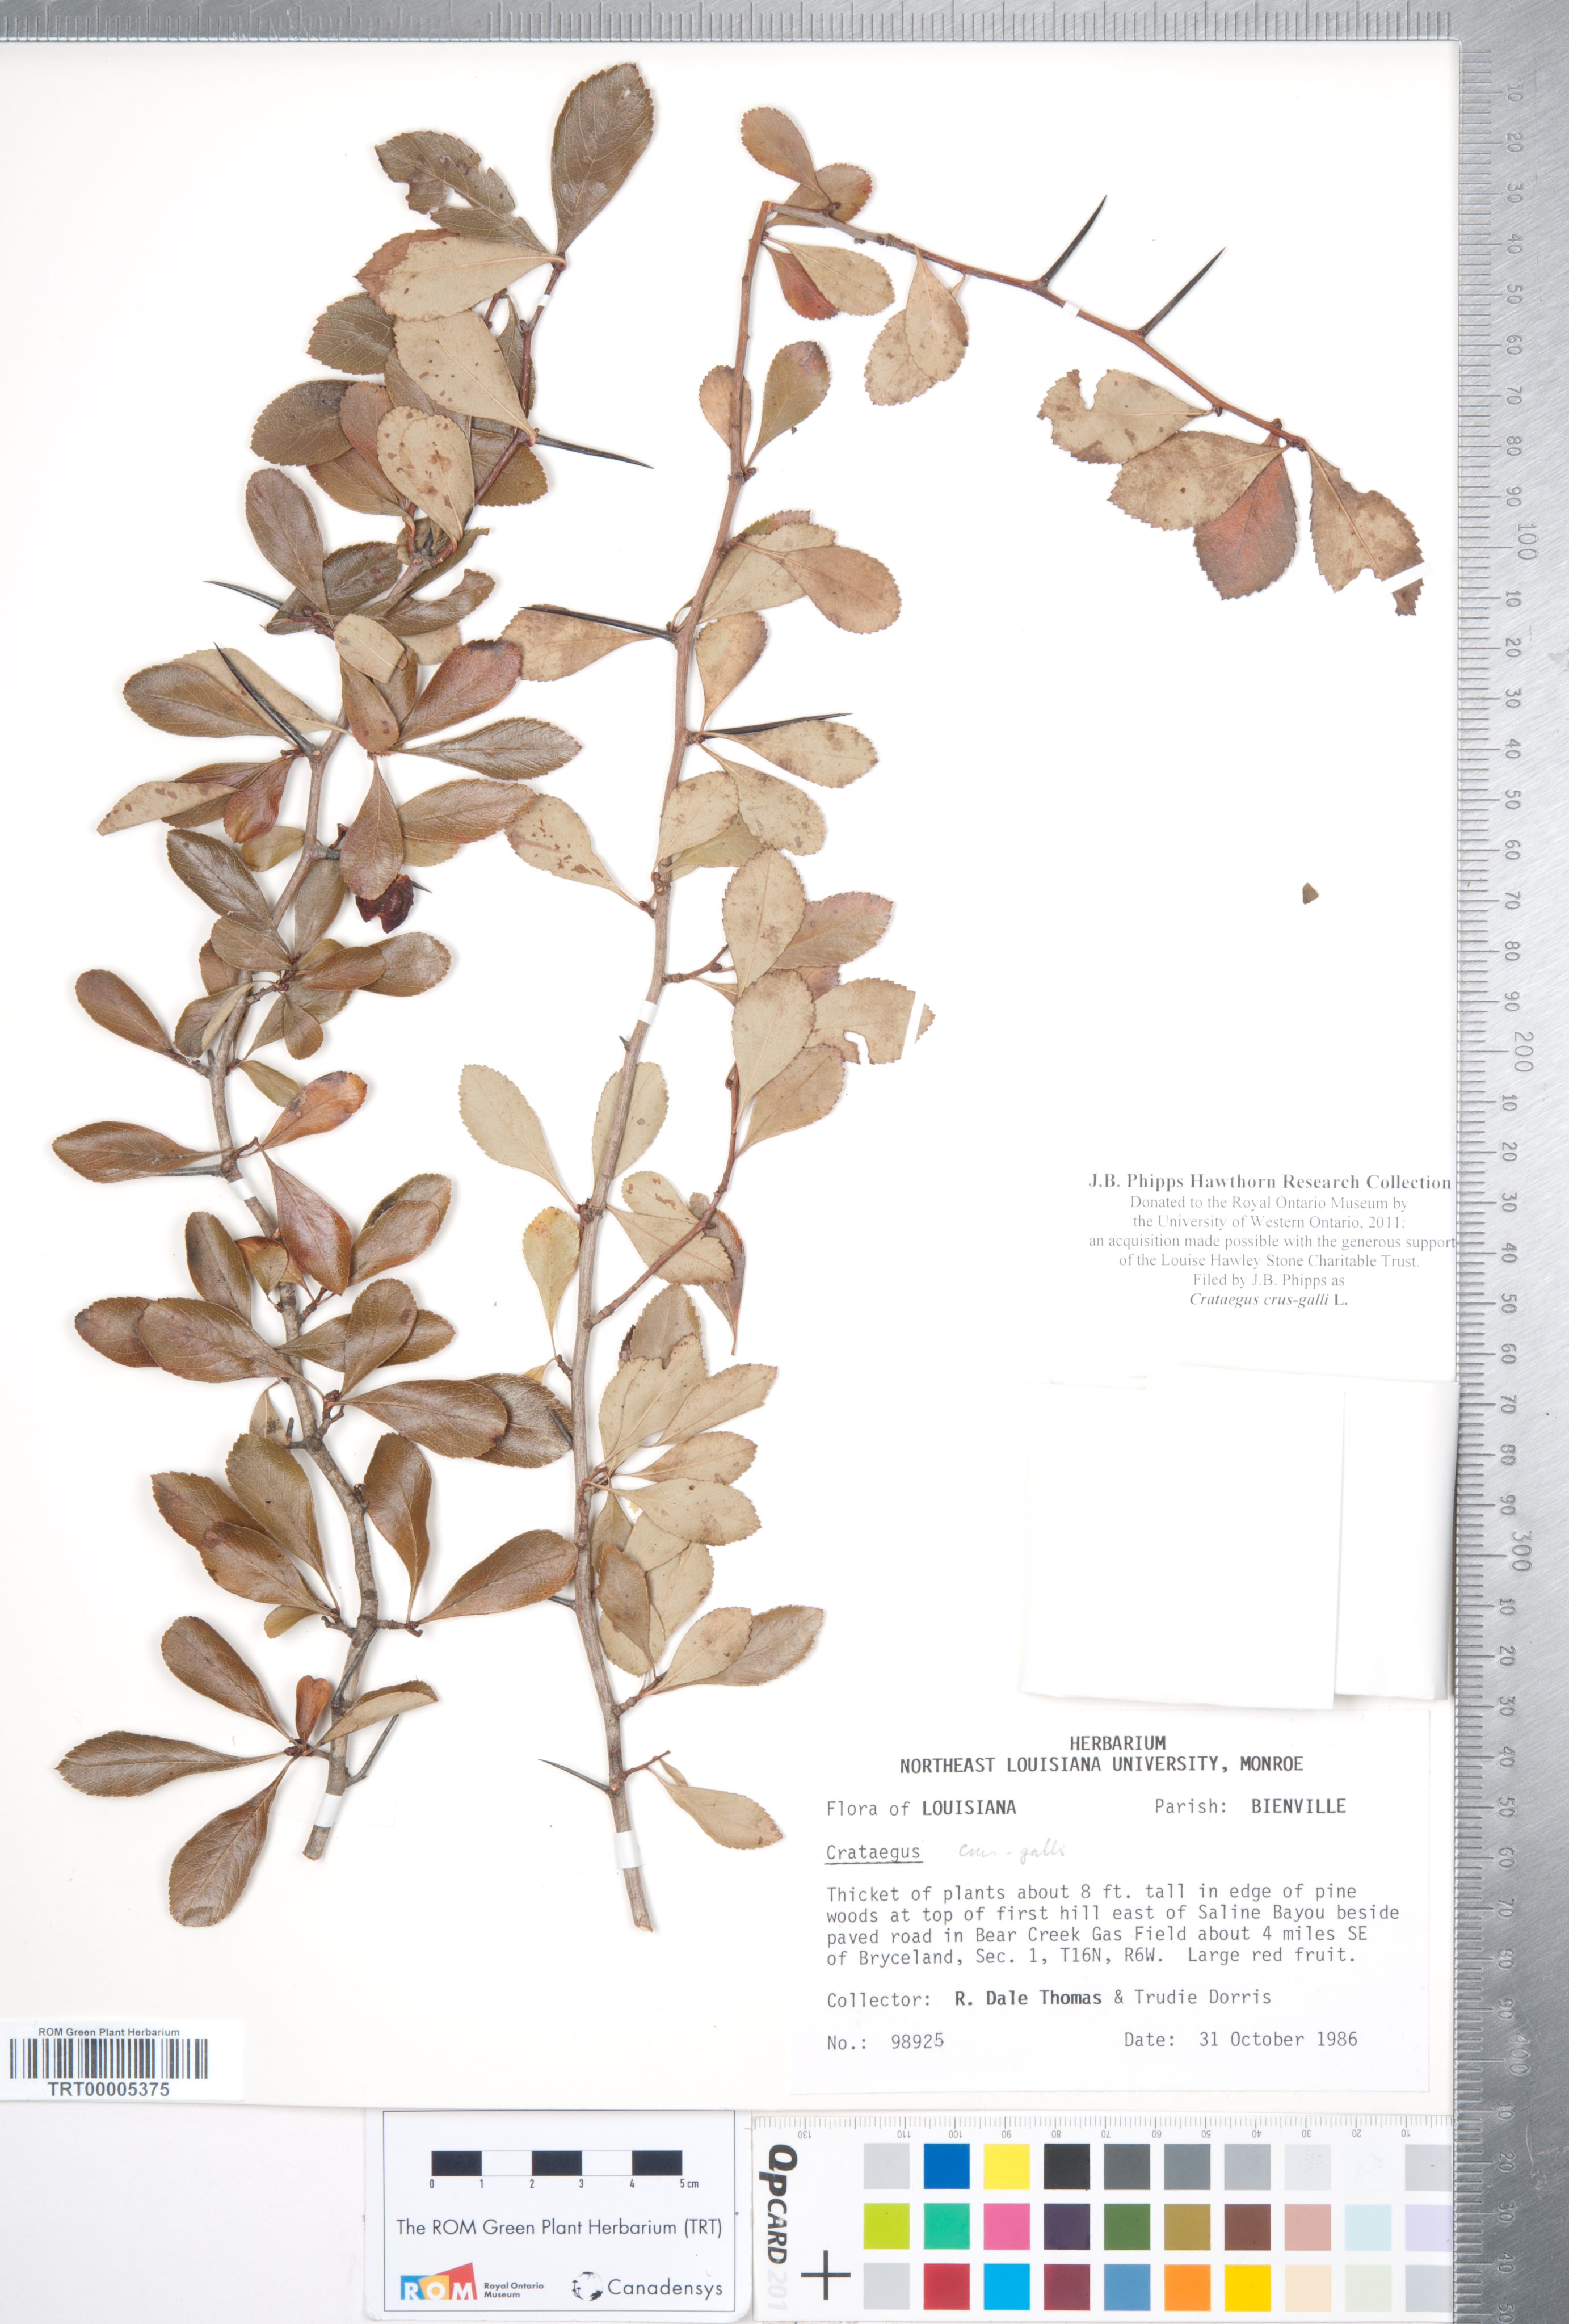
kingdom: Plantae
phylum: Tracheophyta
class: Magnoliopsida
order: Rosales
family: Rosaceae
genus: Crataegus
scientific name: Crataegus crus-galli
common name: Cockspurthorn
